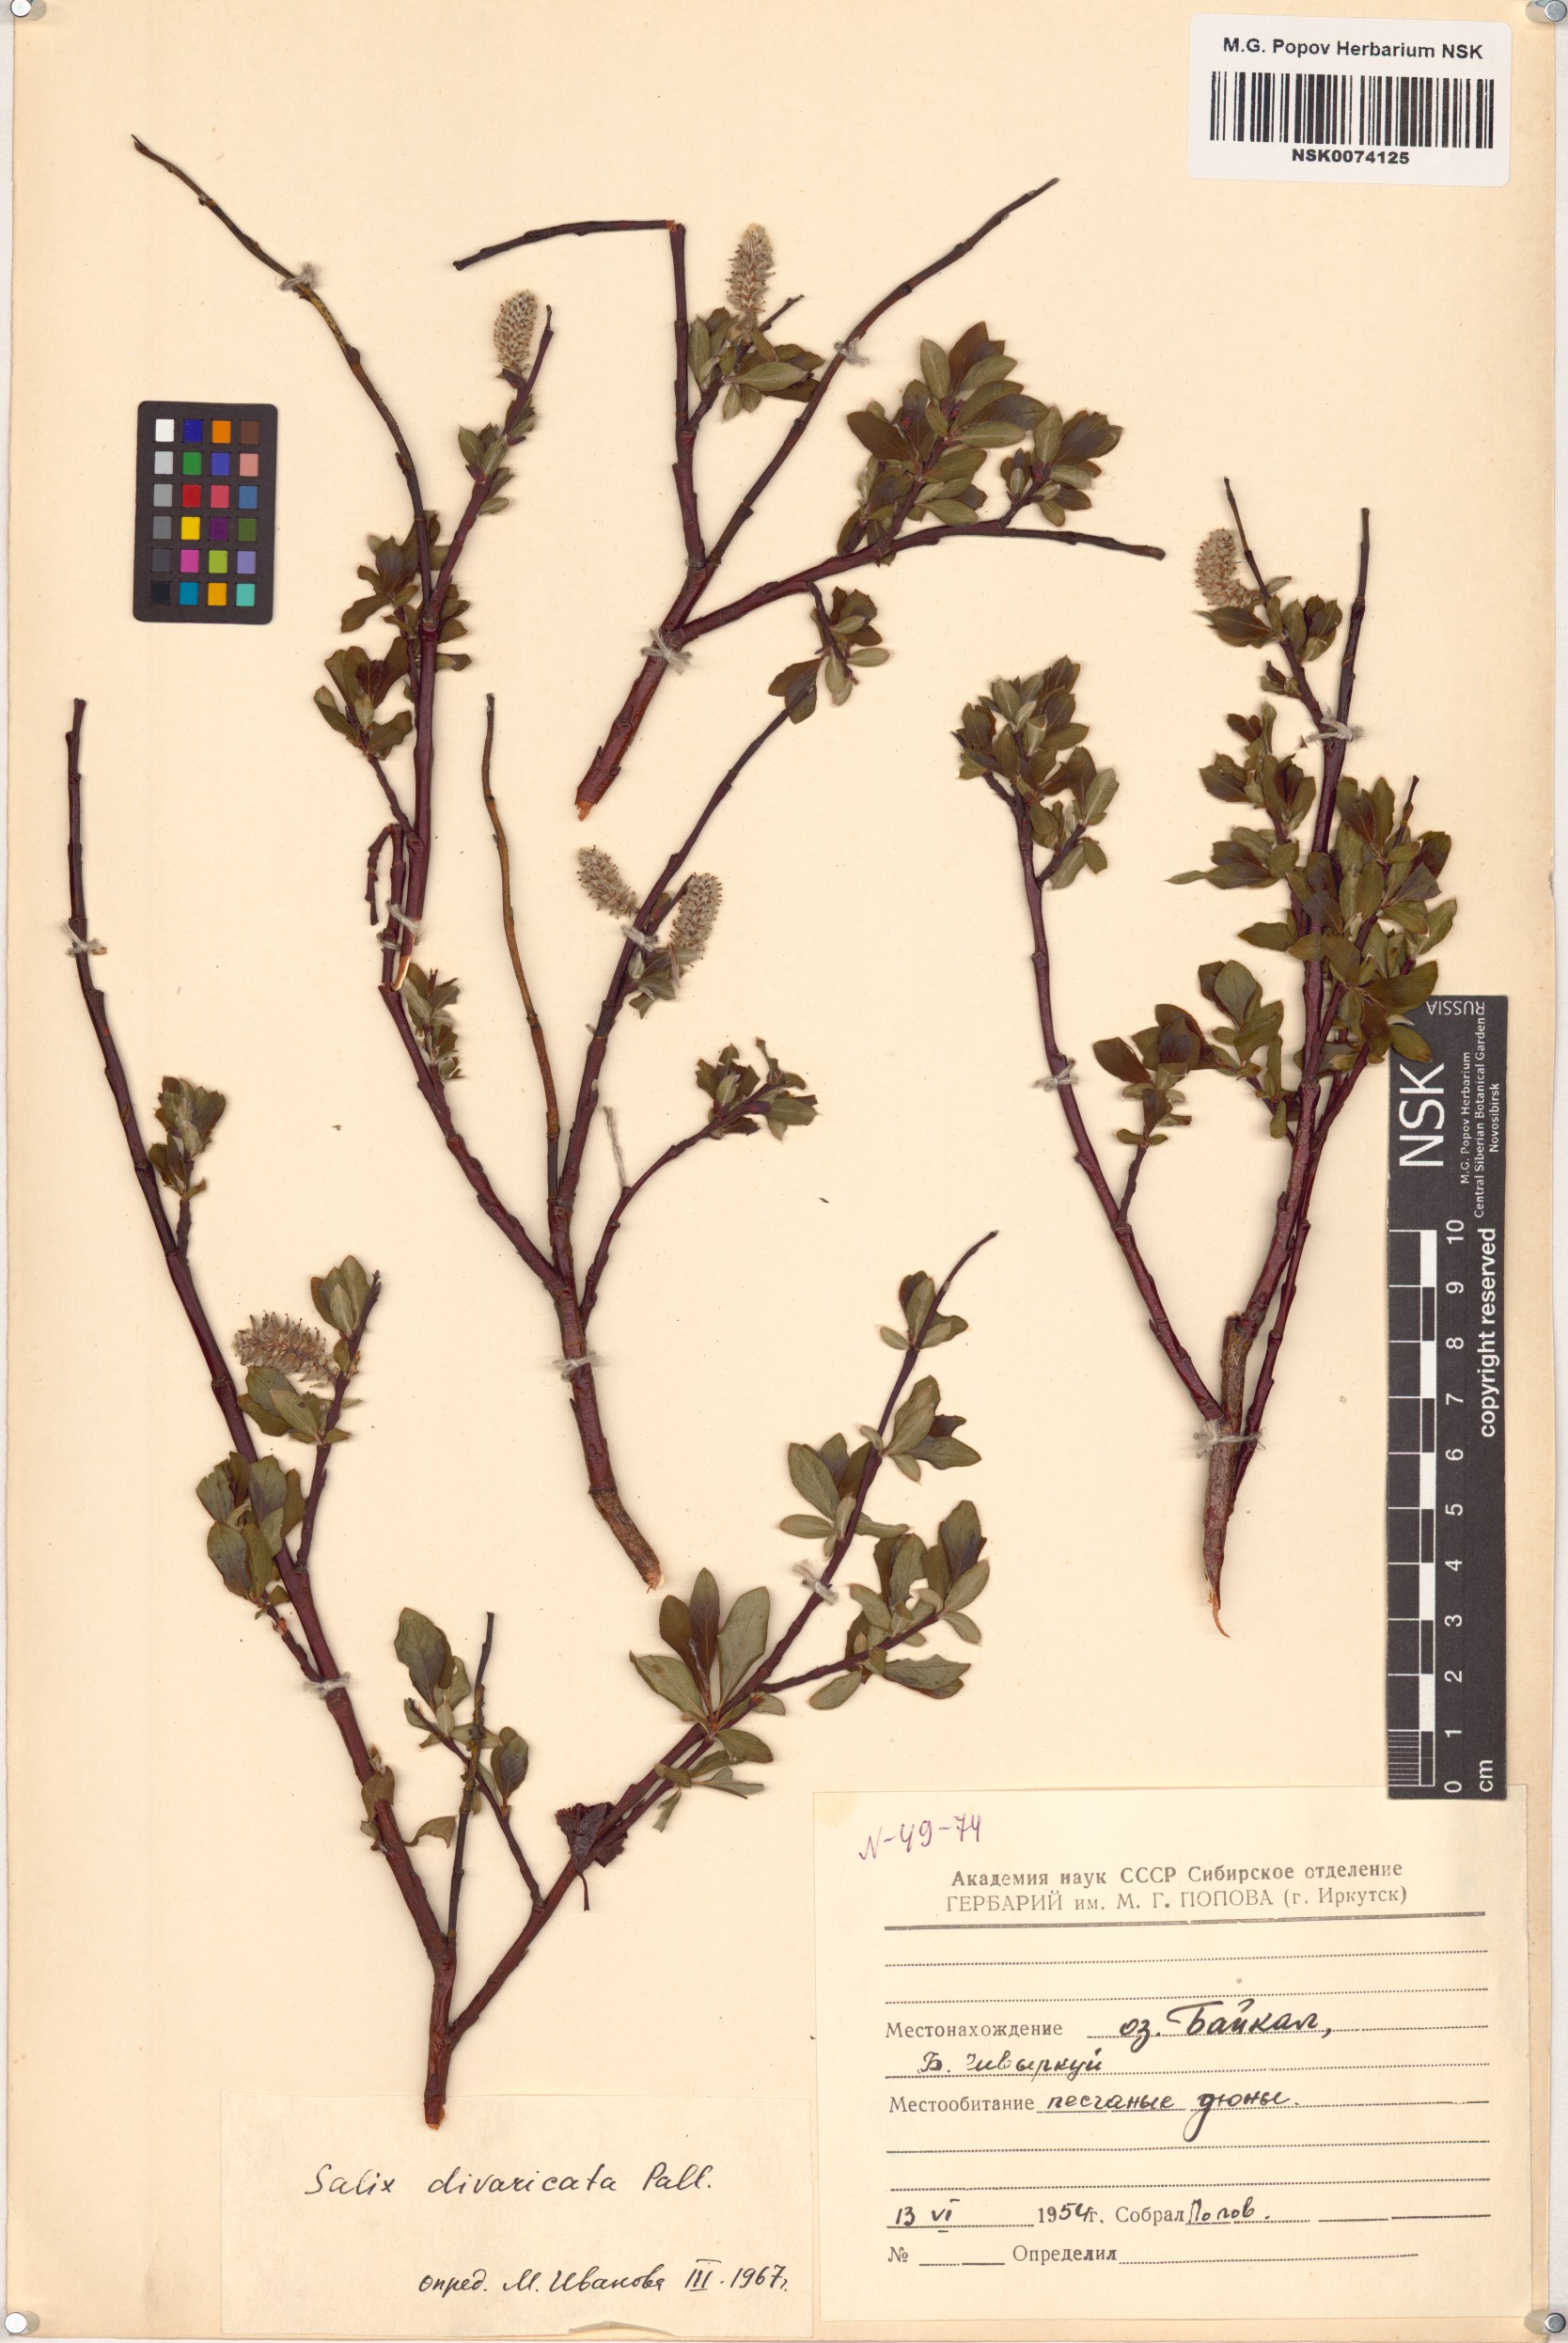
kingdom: Plantae
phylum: Tracheophyta
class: Magnoliopsida
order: Malpighiales
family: Salicaceae
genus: Salix
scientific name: Salix divaricata
